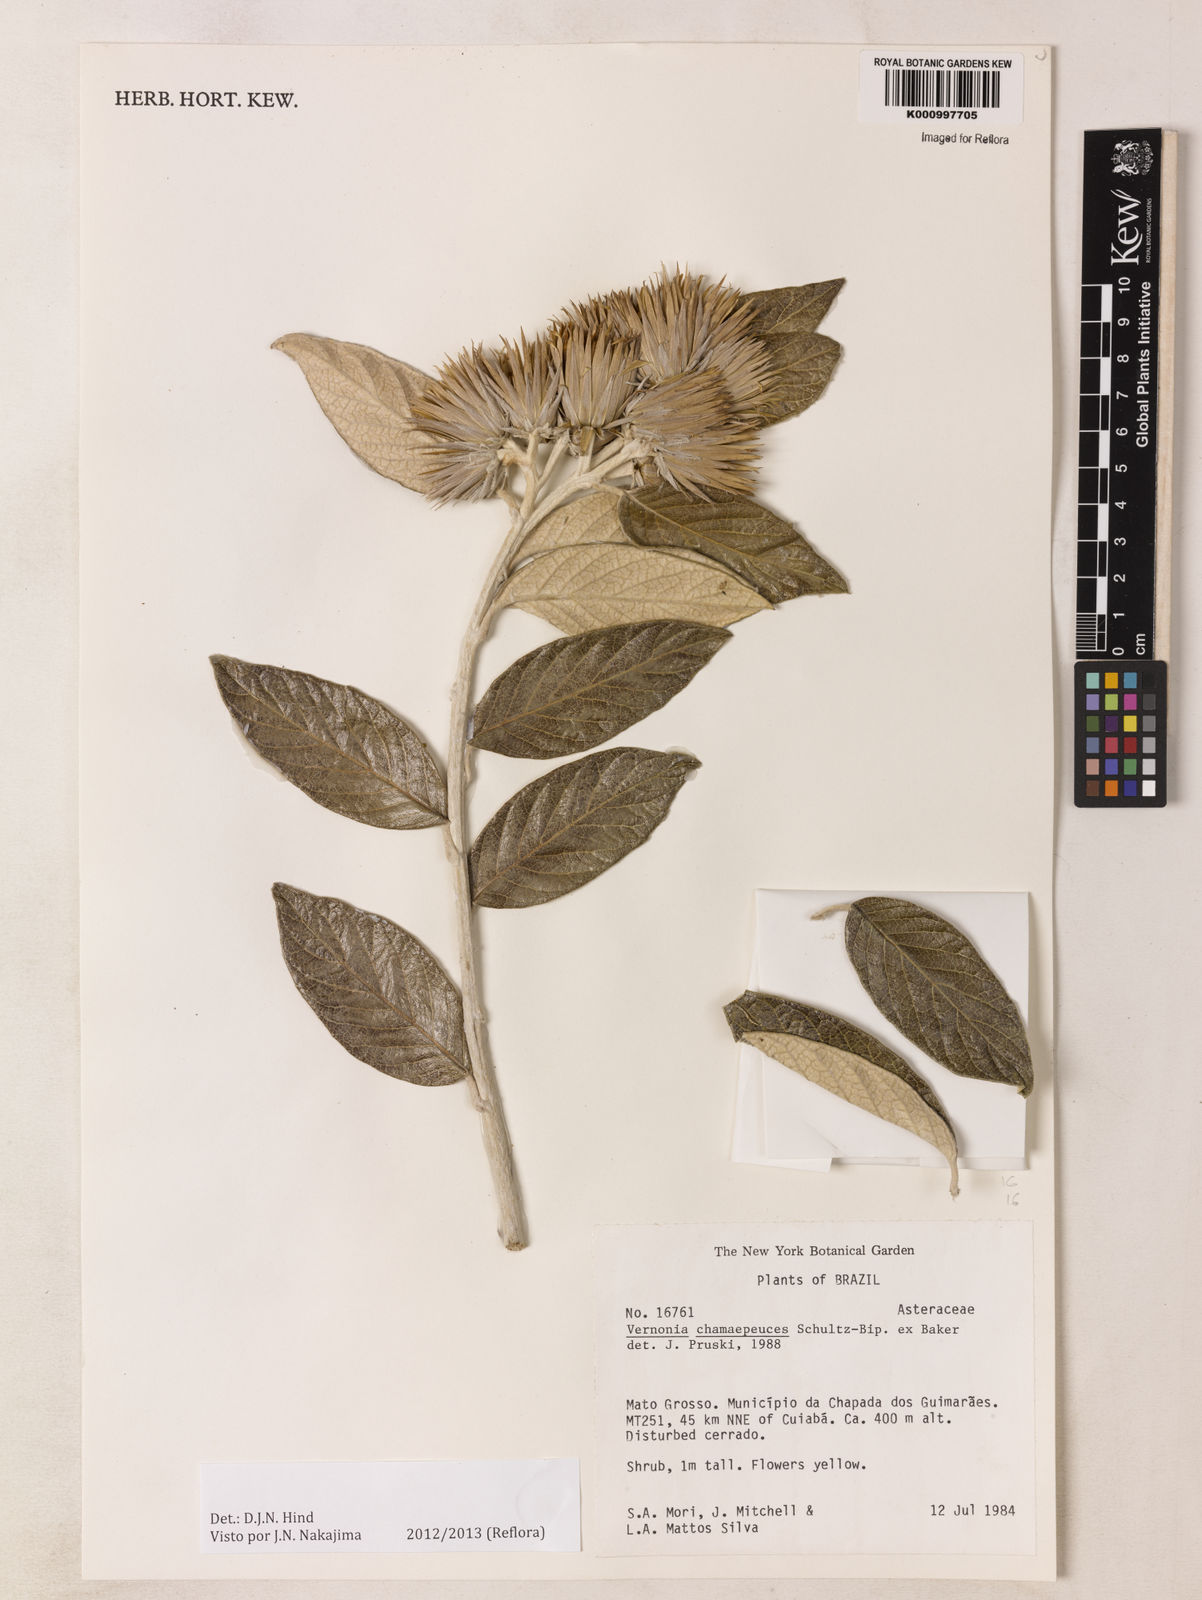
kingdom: Plantae
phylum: Tracheophyta
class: Magnoliopsida
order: Asterales
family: Asteraceae
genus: Lessingianthus
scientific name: Lessingianthus chamaepeuces
